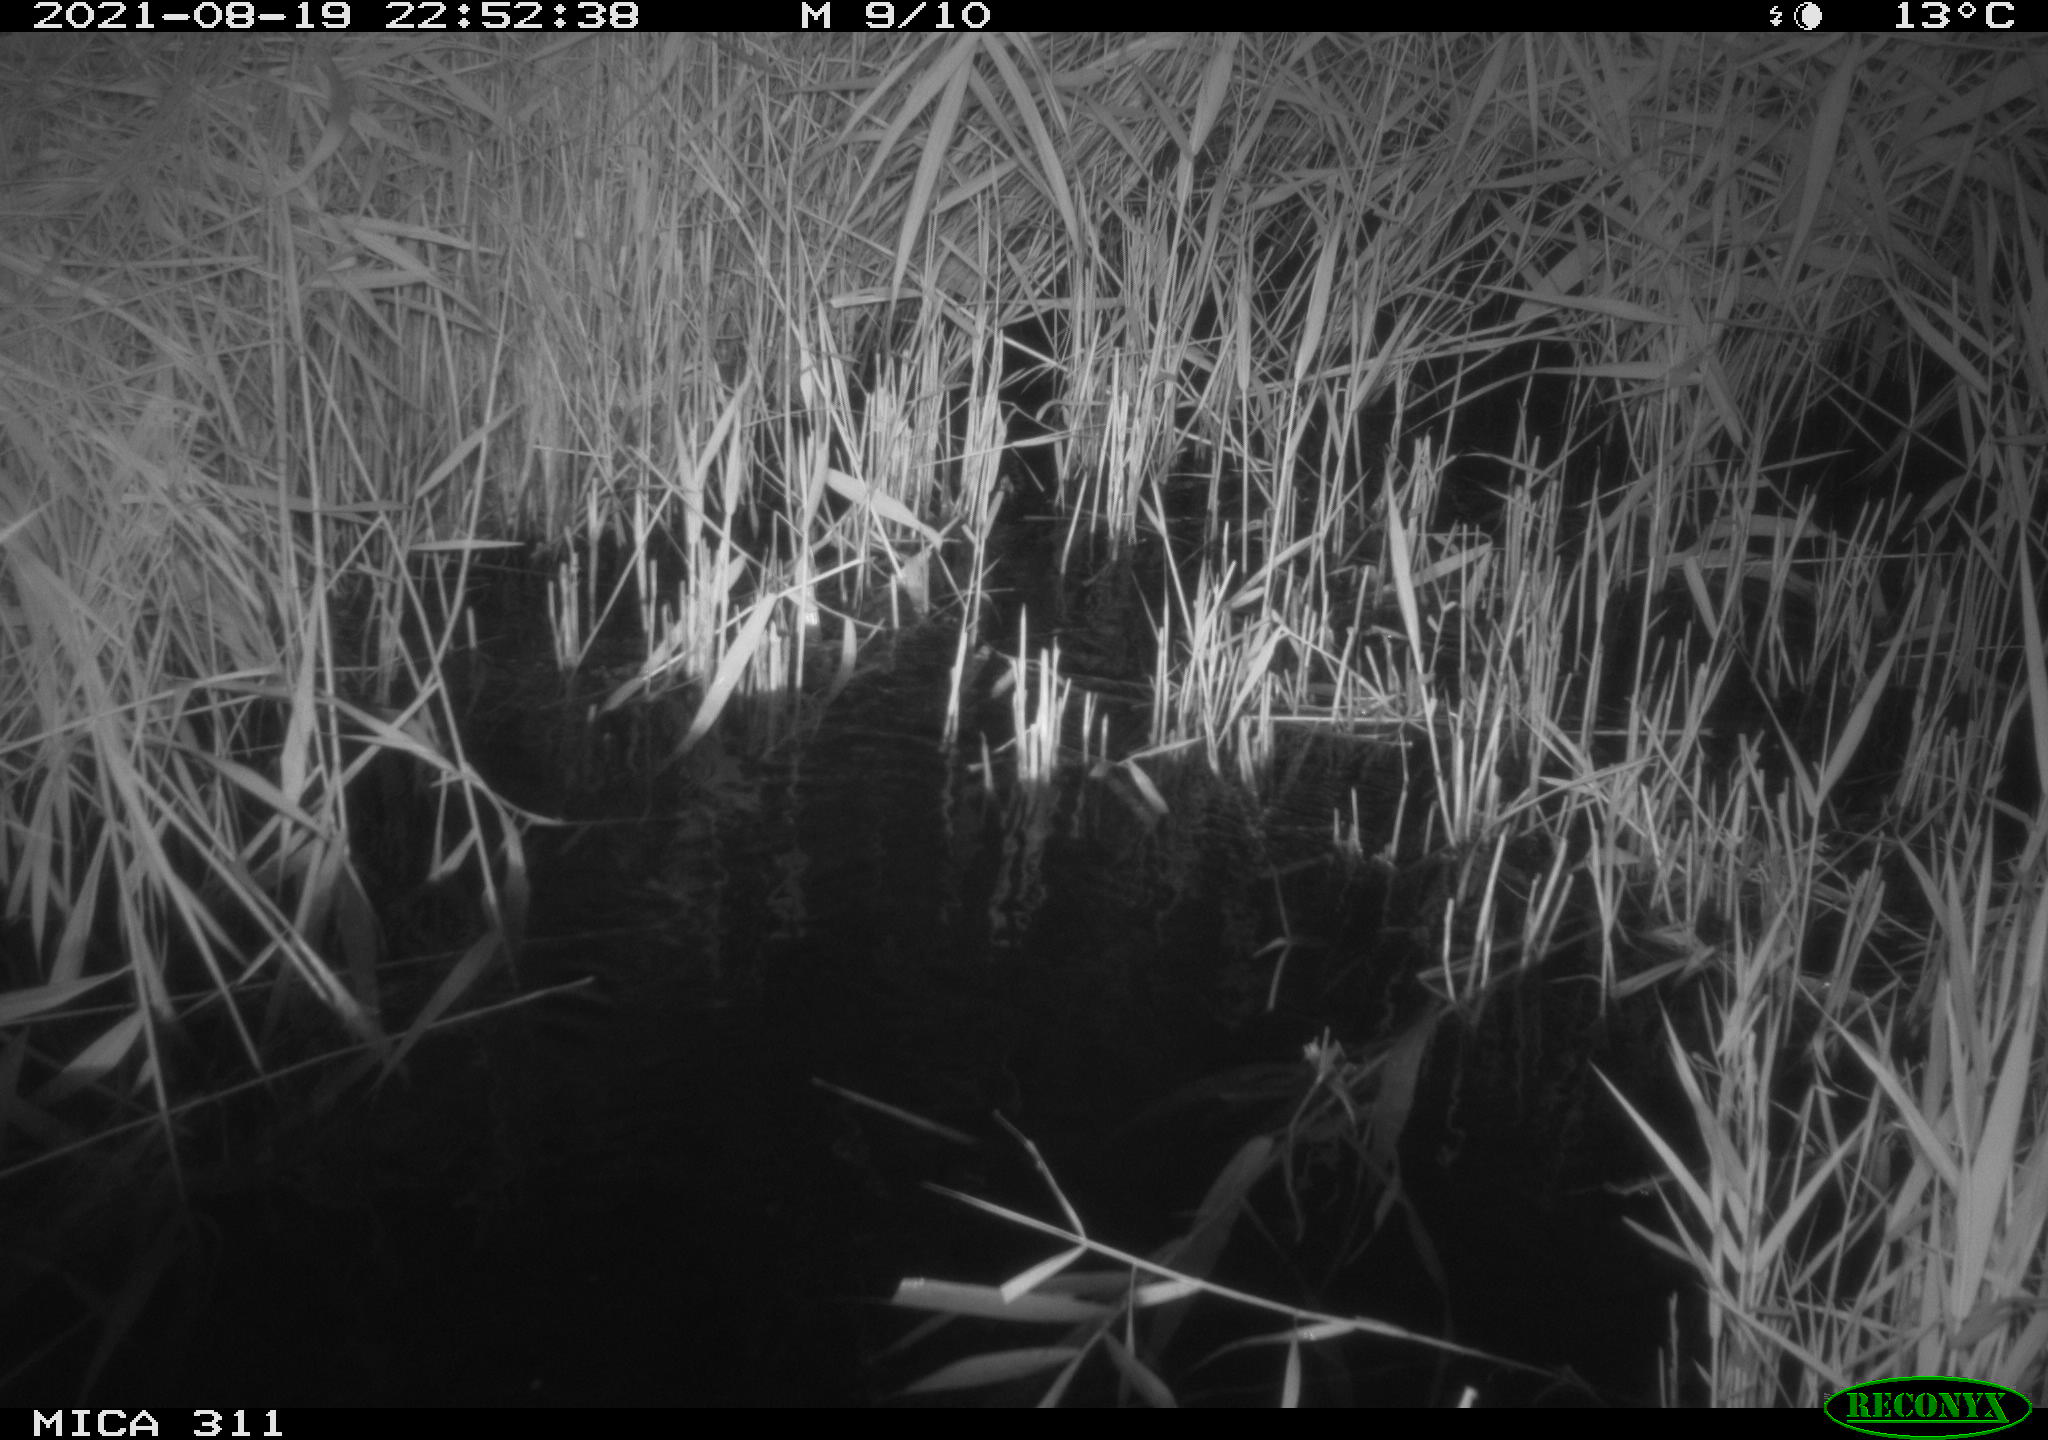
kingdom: Animalia
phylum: Chordata
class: Mammalia
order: Rodentia
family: Muridae
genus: Rattus
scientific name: Rattus norvegicus
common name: Brown rat
